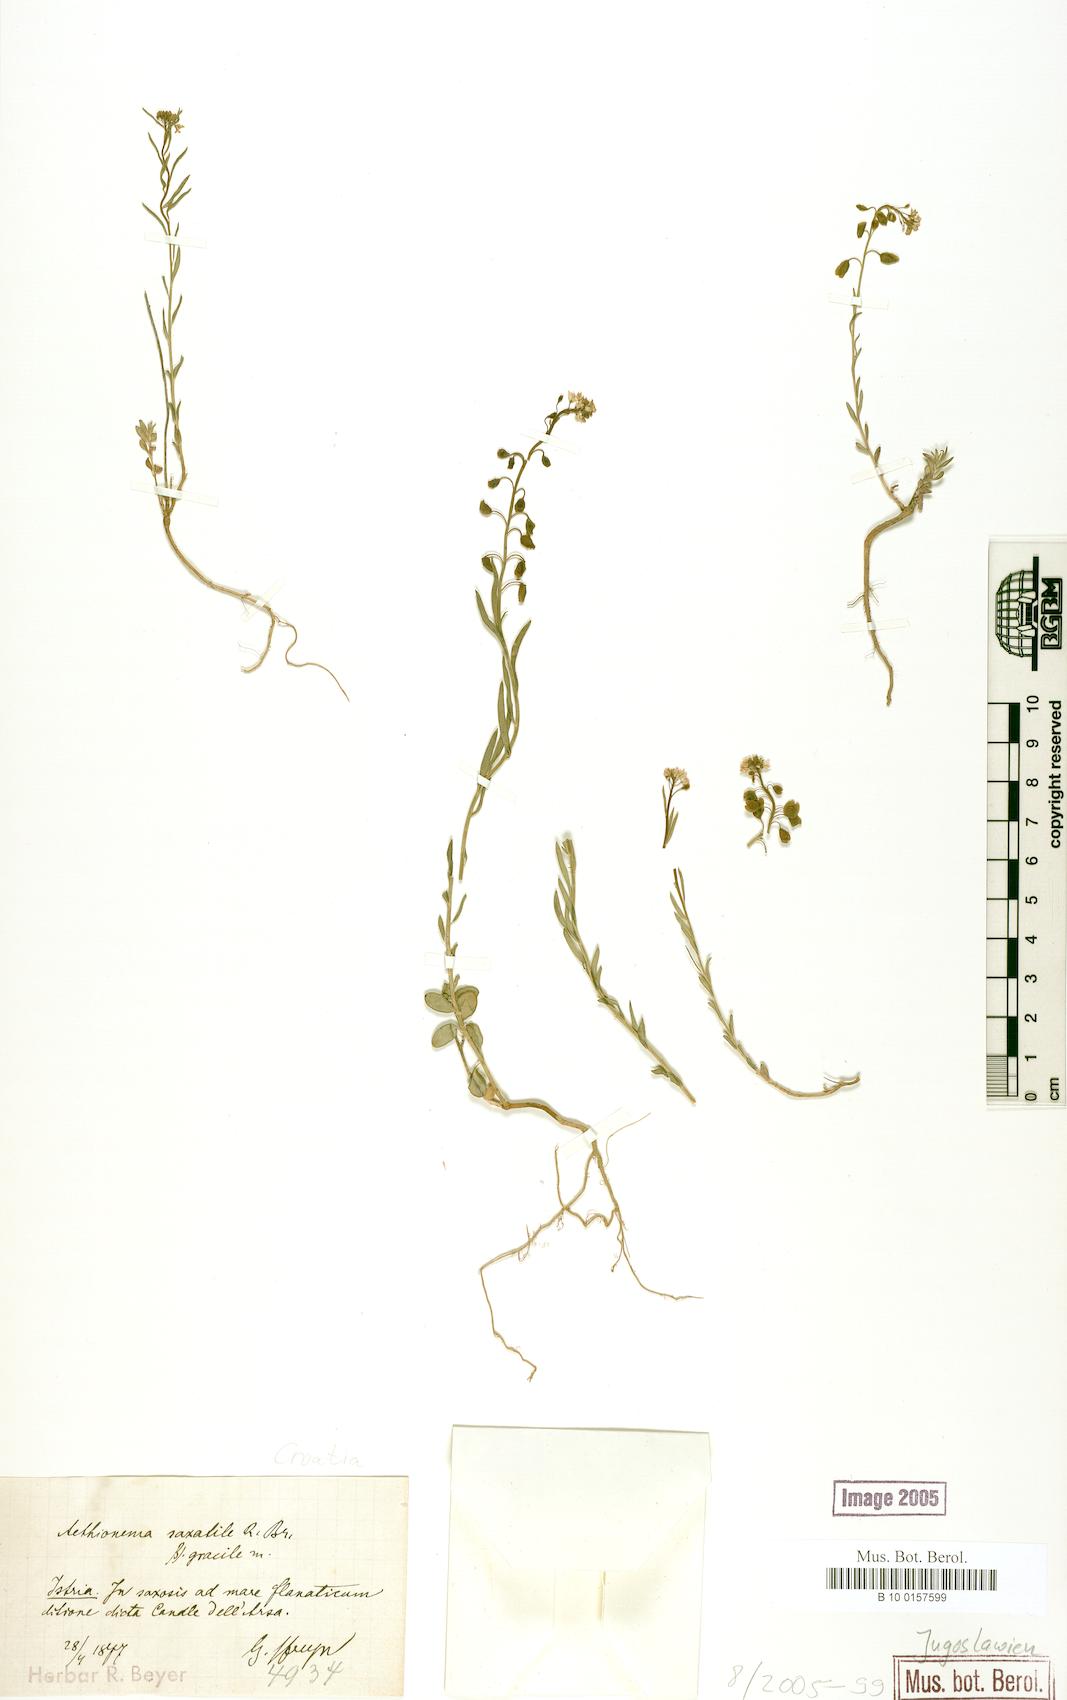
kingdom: Plantae
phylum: Tracheophyta
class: Magnoliopsida
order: Brassicales
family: Brassicaceae
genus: Aethionema
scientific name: Aethionema saxatile
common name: Burnt candytuft
